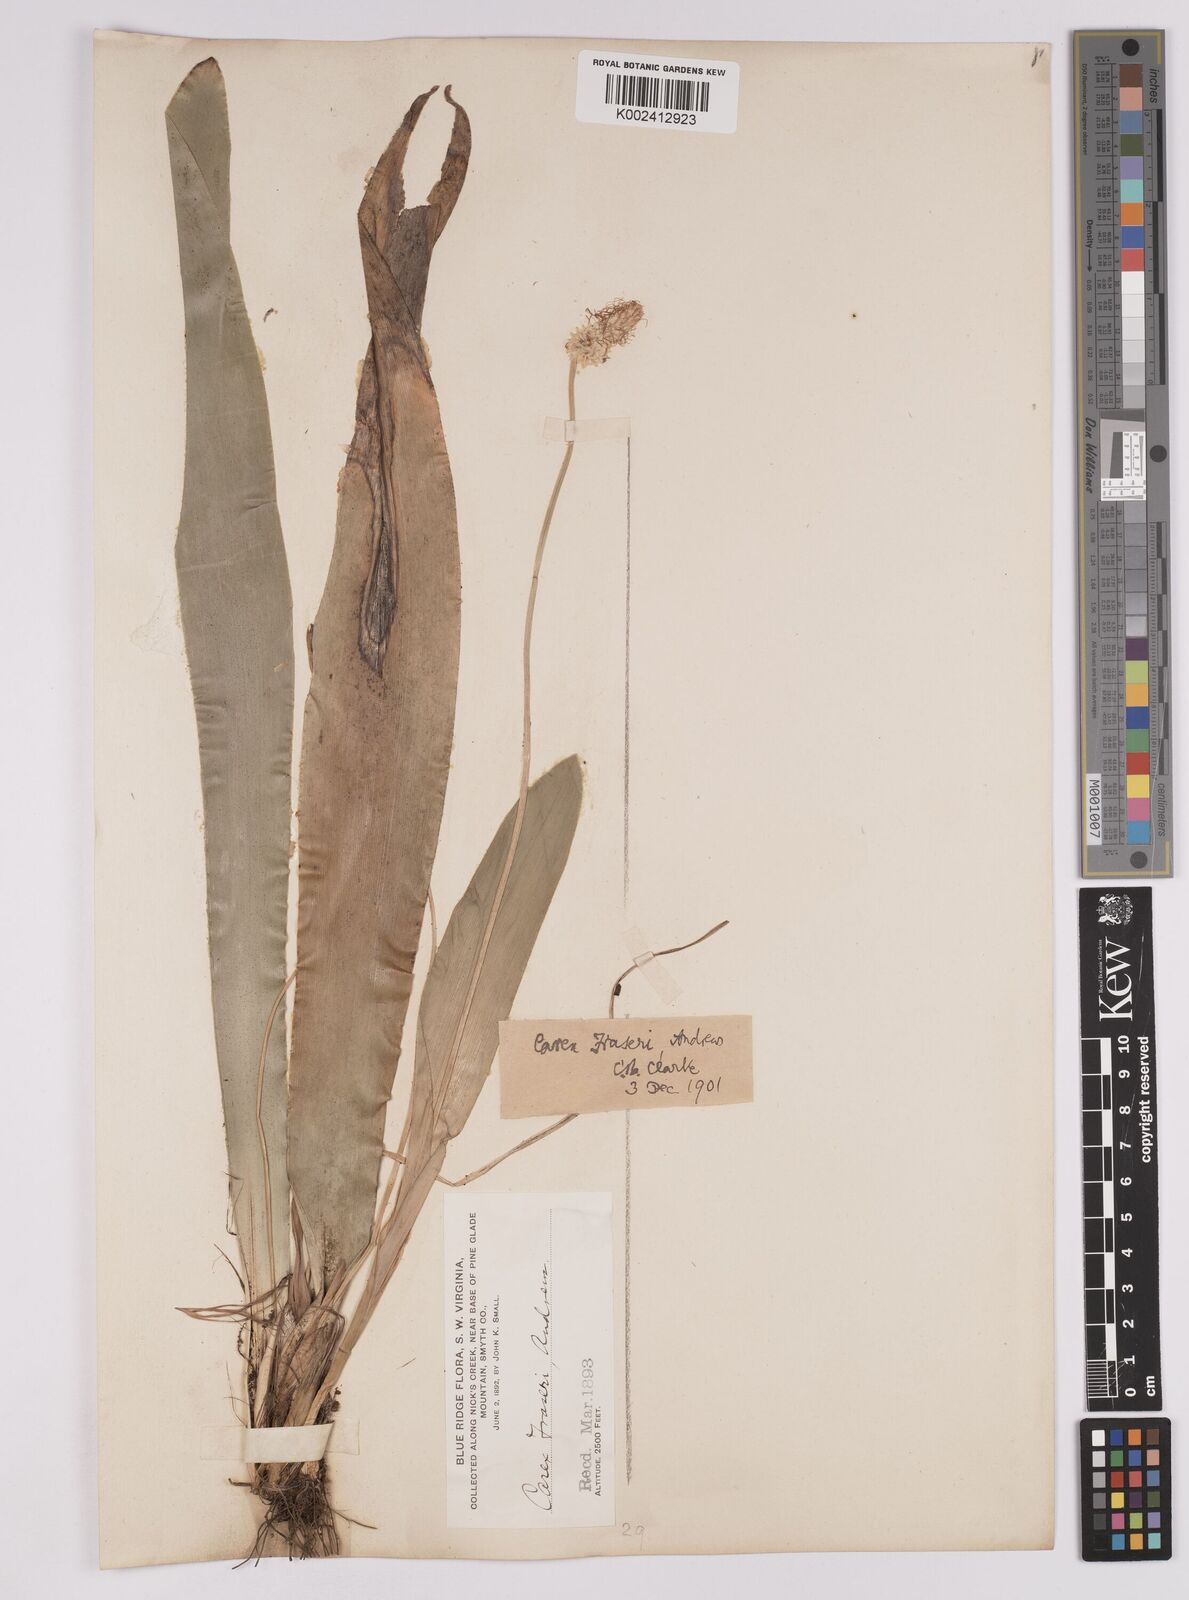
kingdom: Plantae
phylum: Tracheophyta
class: Liliopsida
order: Poales
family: Cyperaceae
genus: Carex
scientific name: Carex fraseriana
